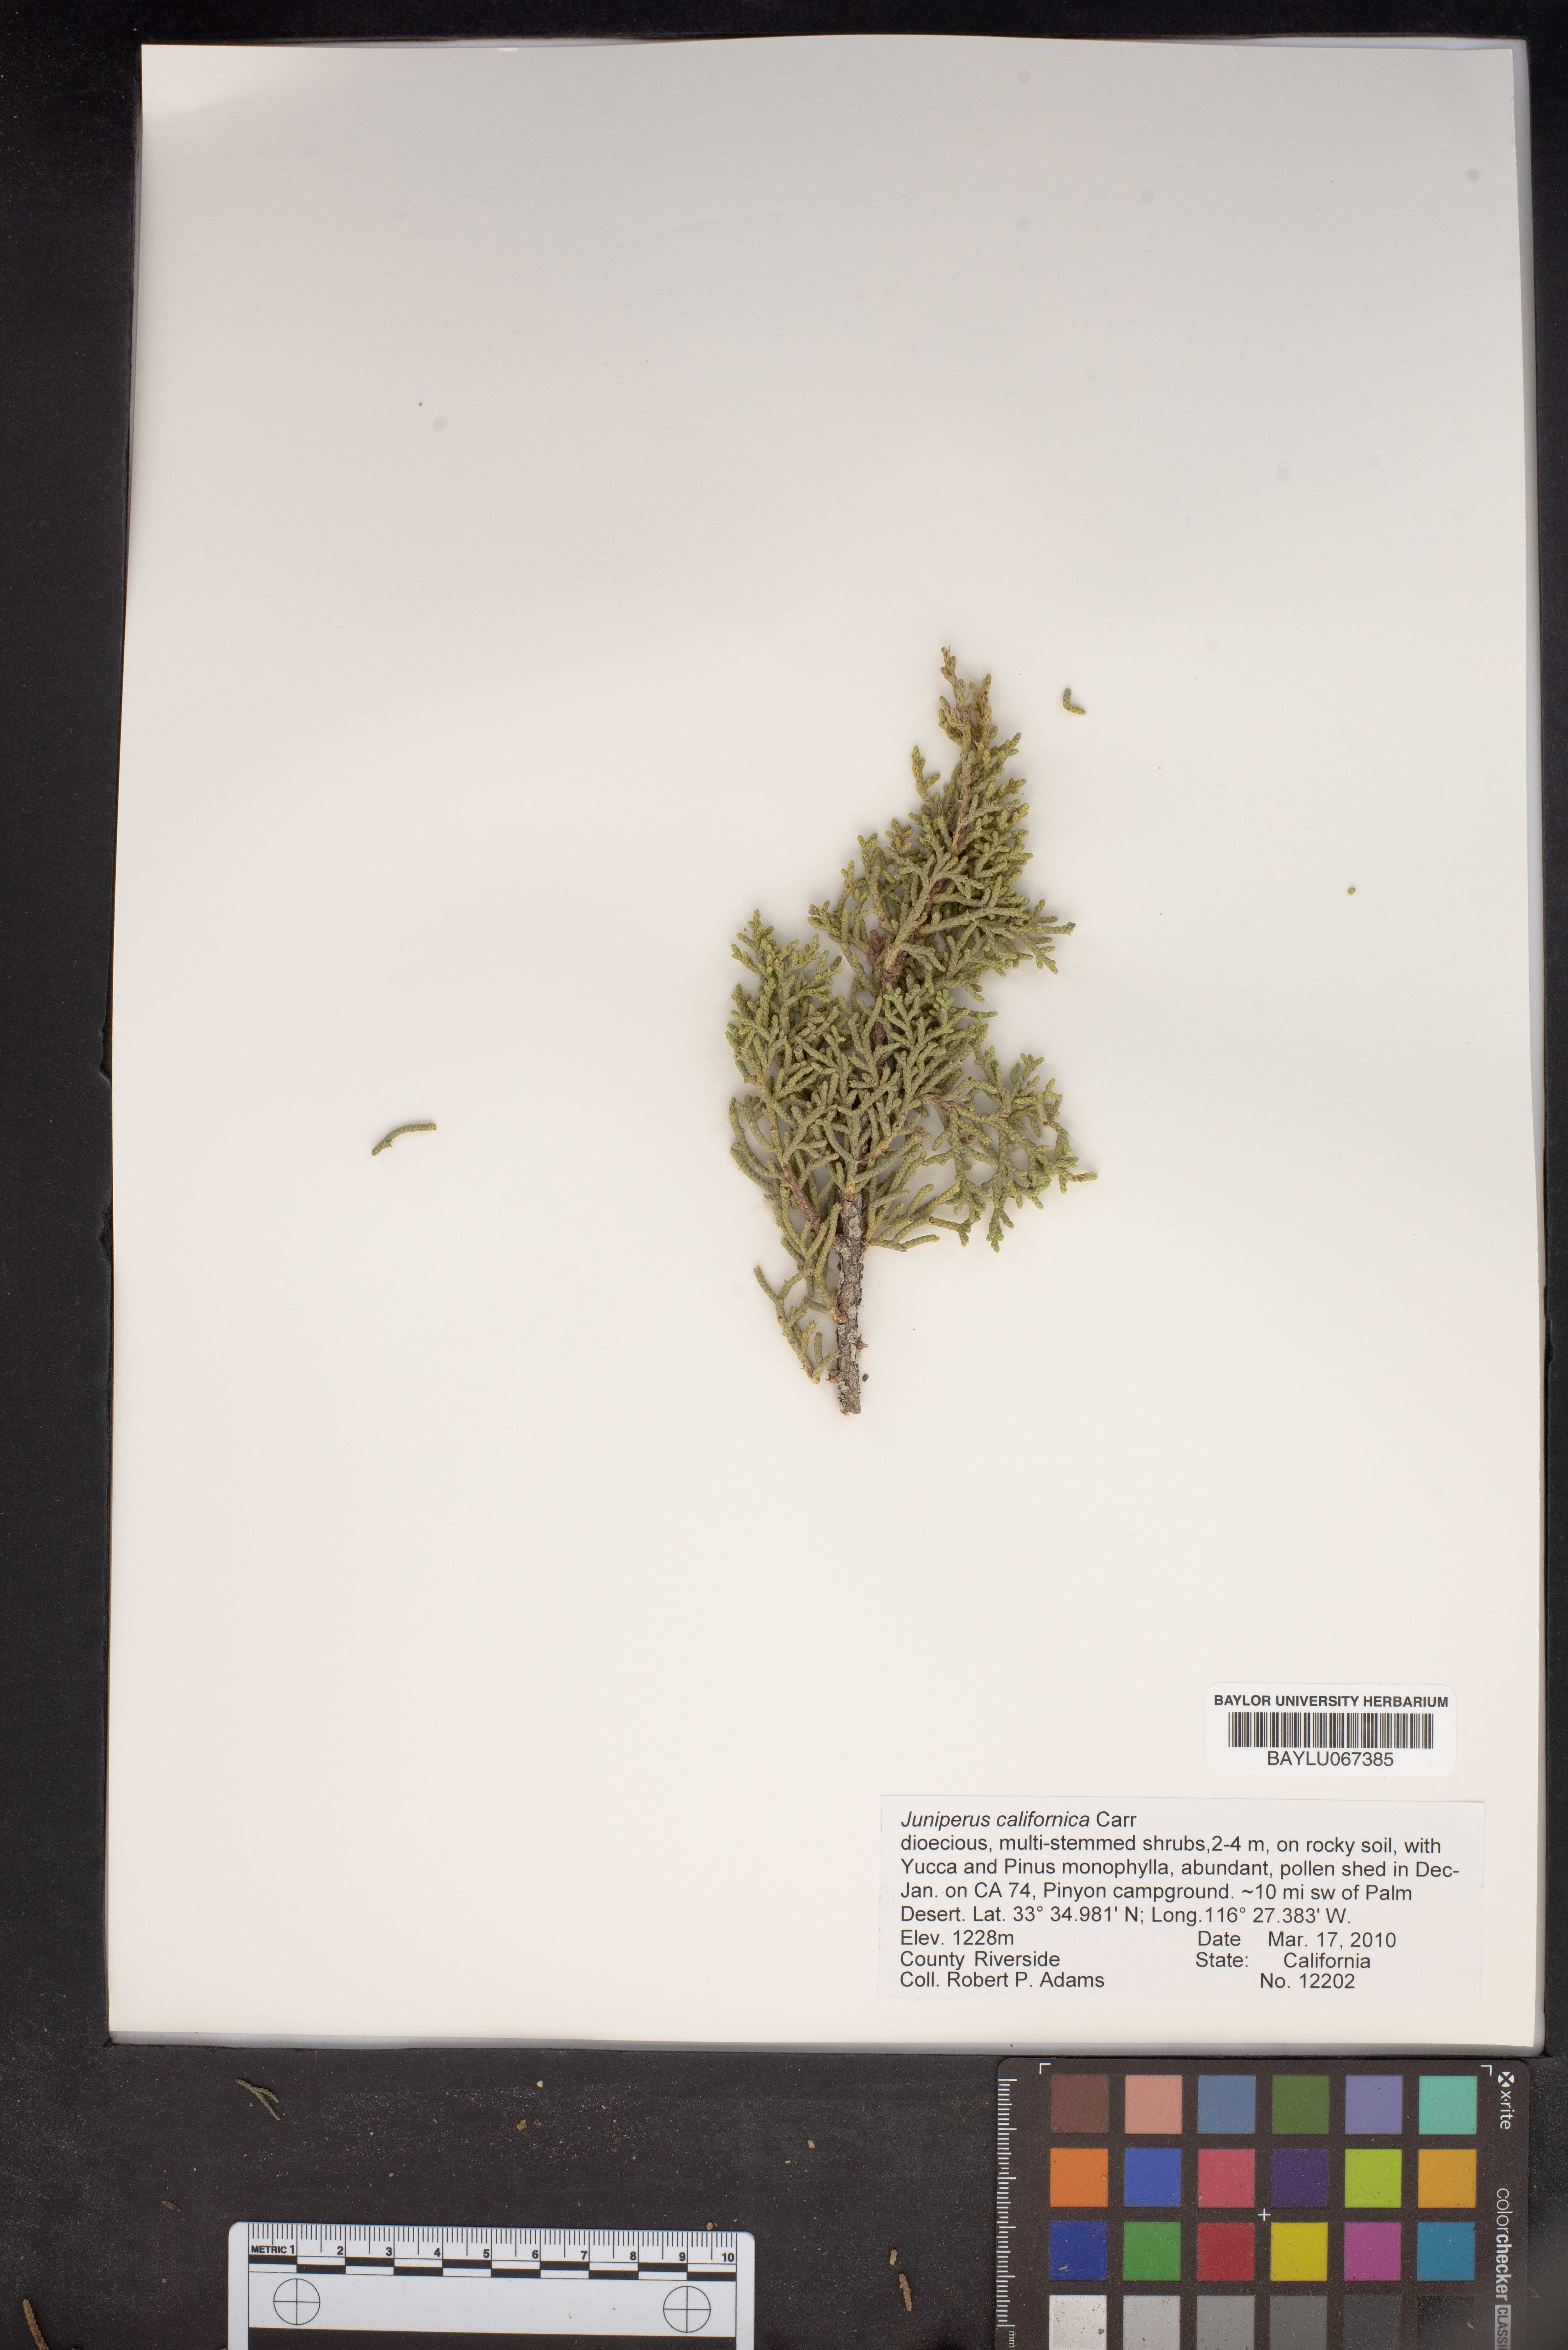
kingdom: Plantae
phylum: Tracheophyta
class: Pinopsida
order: Pinales
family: Cupressaceae
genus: Juniperus
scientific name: Juniperus californica
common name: California juniper
